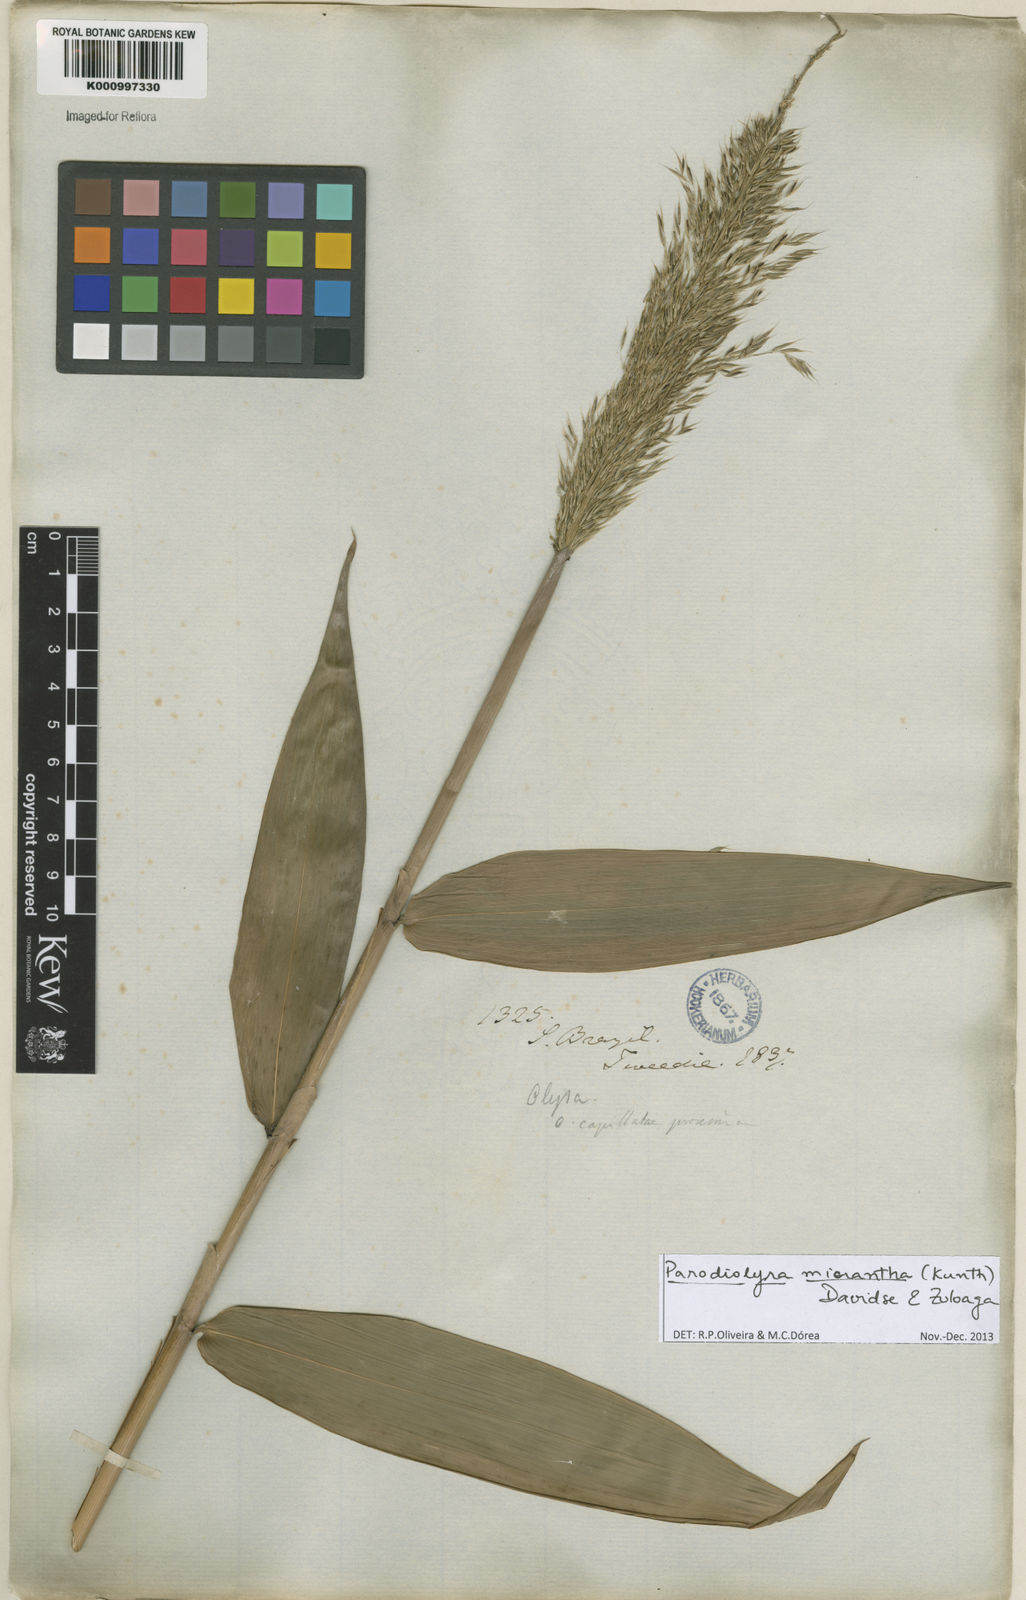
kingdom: Plantae
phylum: Tracheophyta
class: Liliopsida
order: Poales
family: Poaceae
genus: Taquara
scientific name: Taquara micrantha
